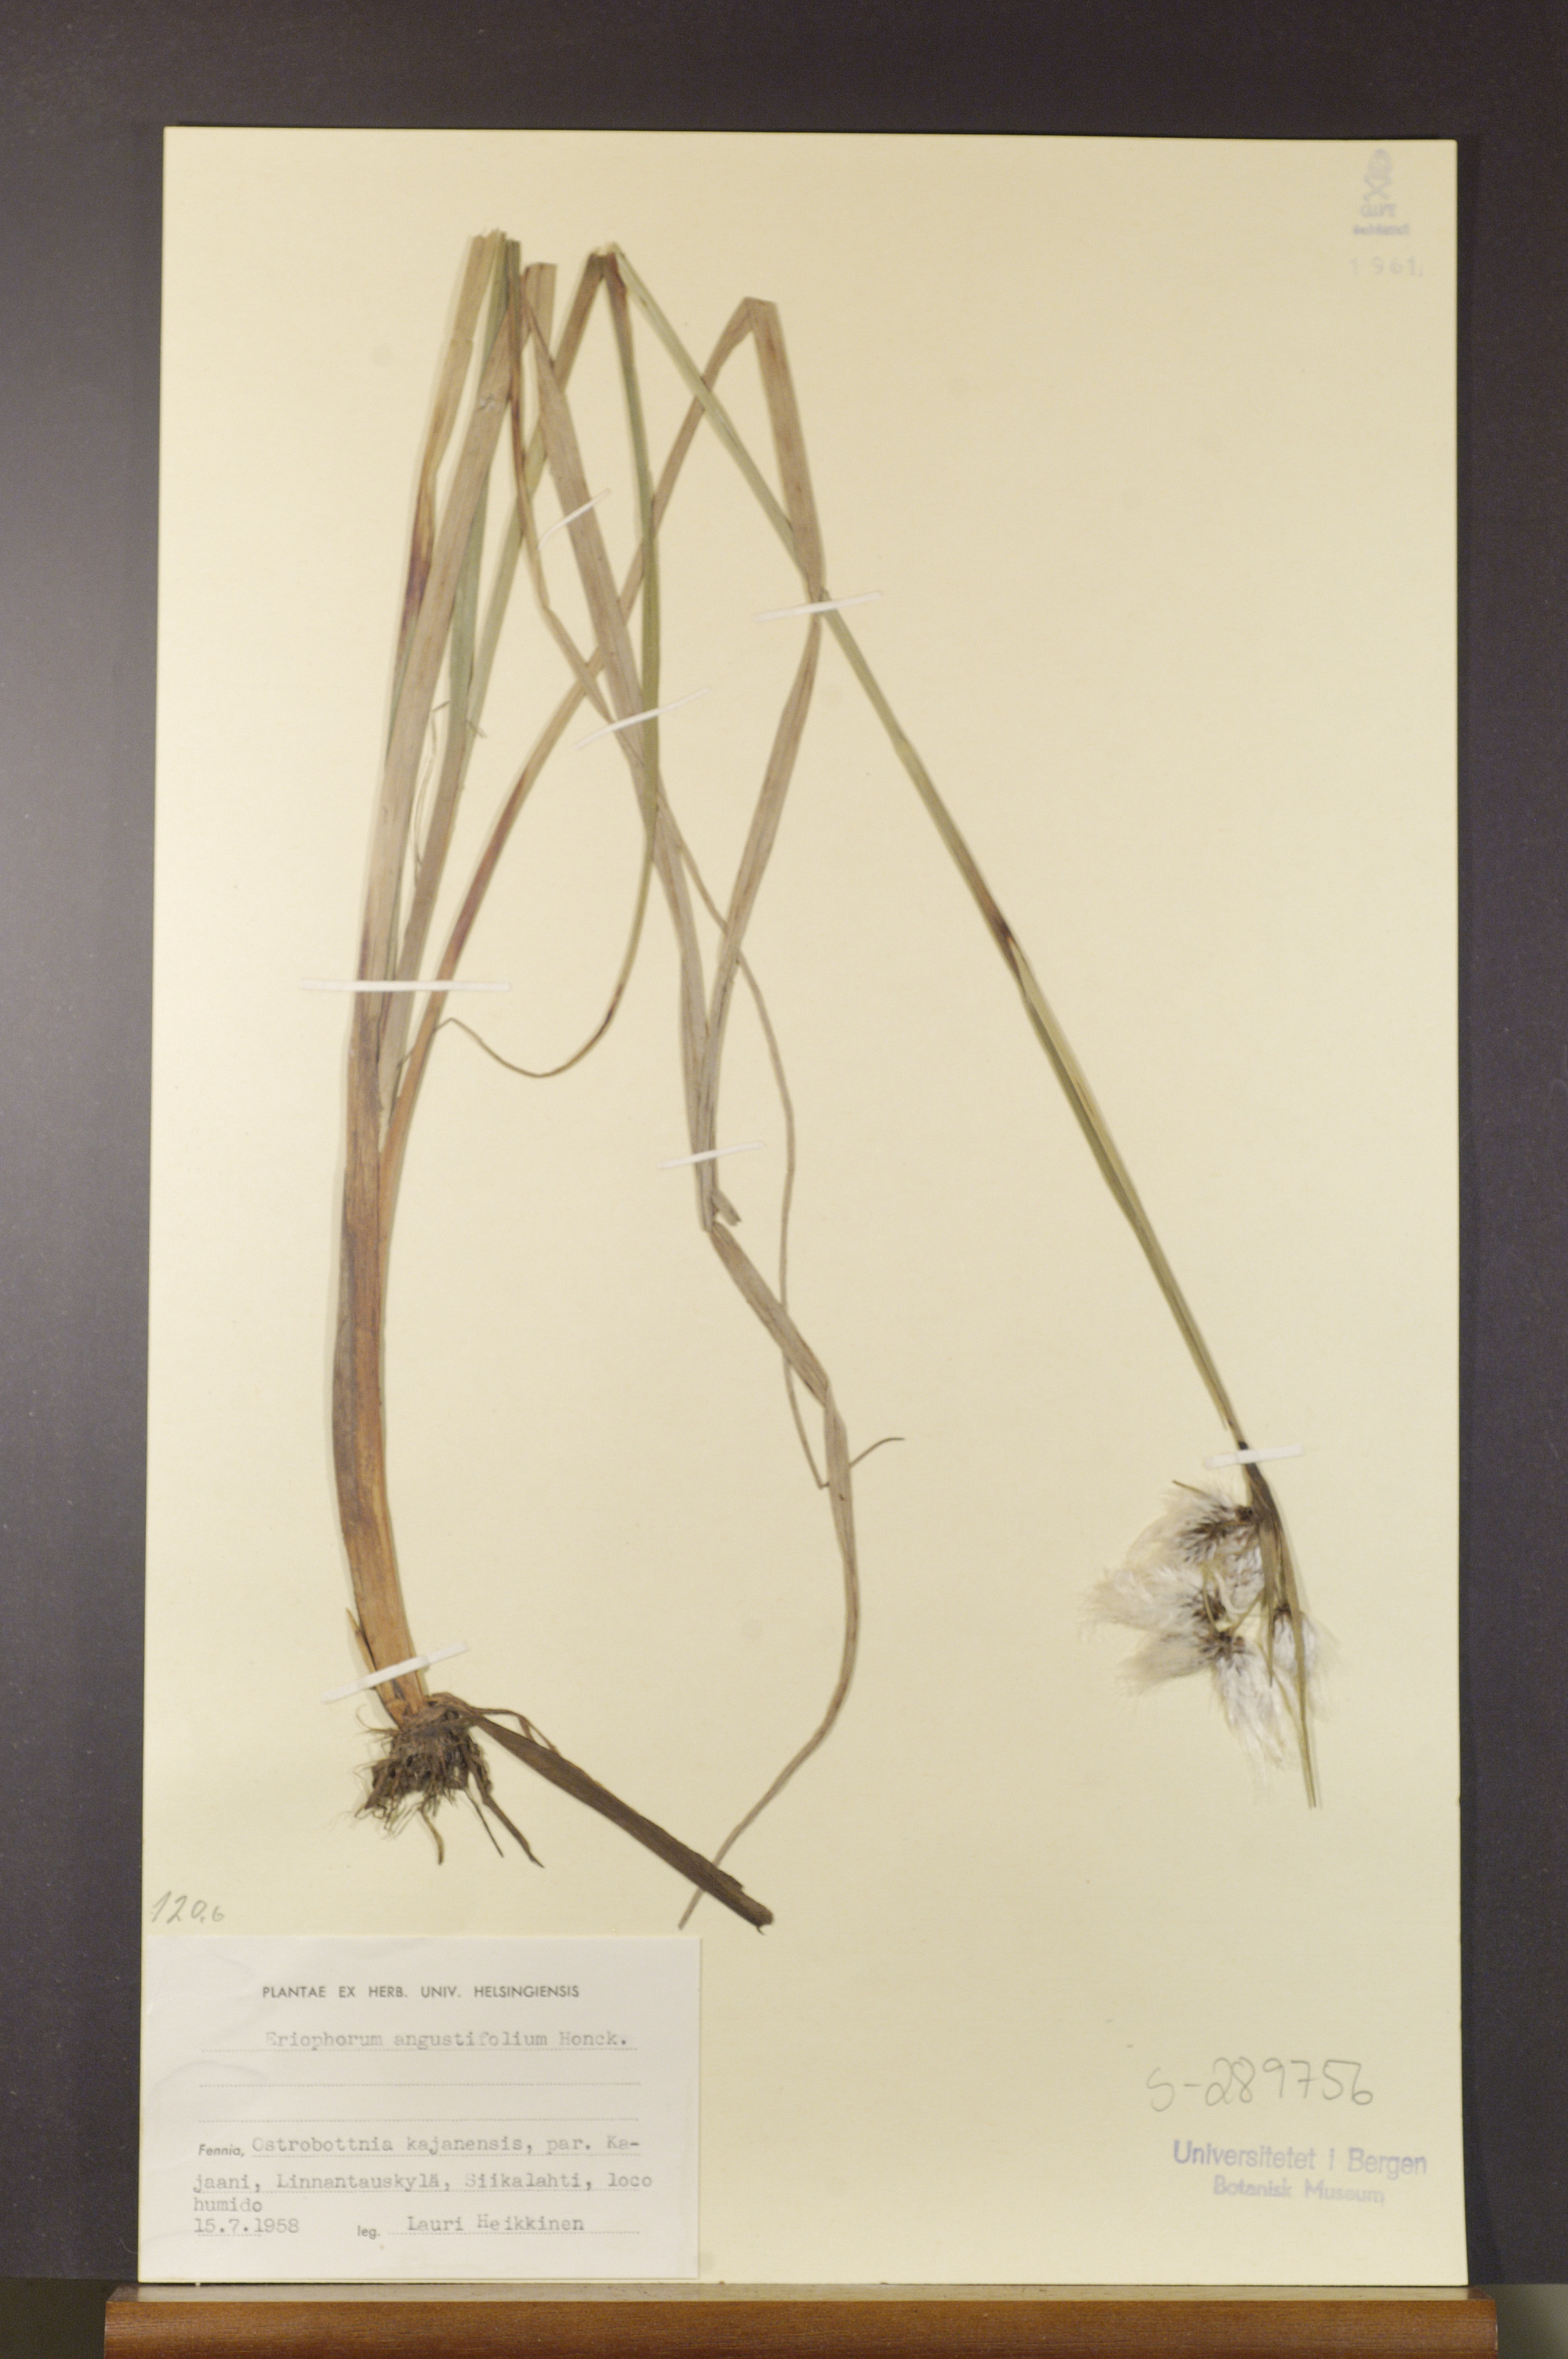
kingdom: Plantae
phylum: Tracheophyta
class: Liliopsida
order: Poales
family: Cyperaceae
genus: Eriophorum
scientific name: Eriophorum angustifolium
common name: Common cottongrass
